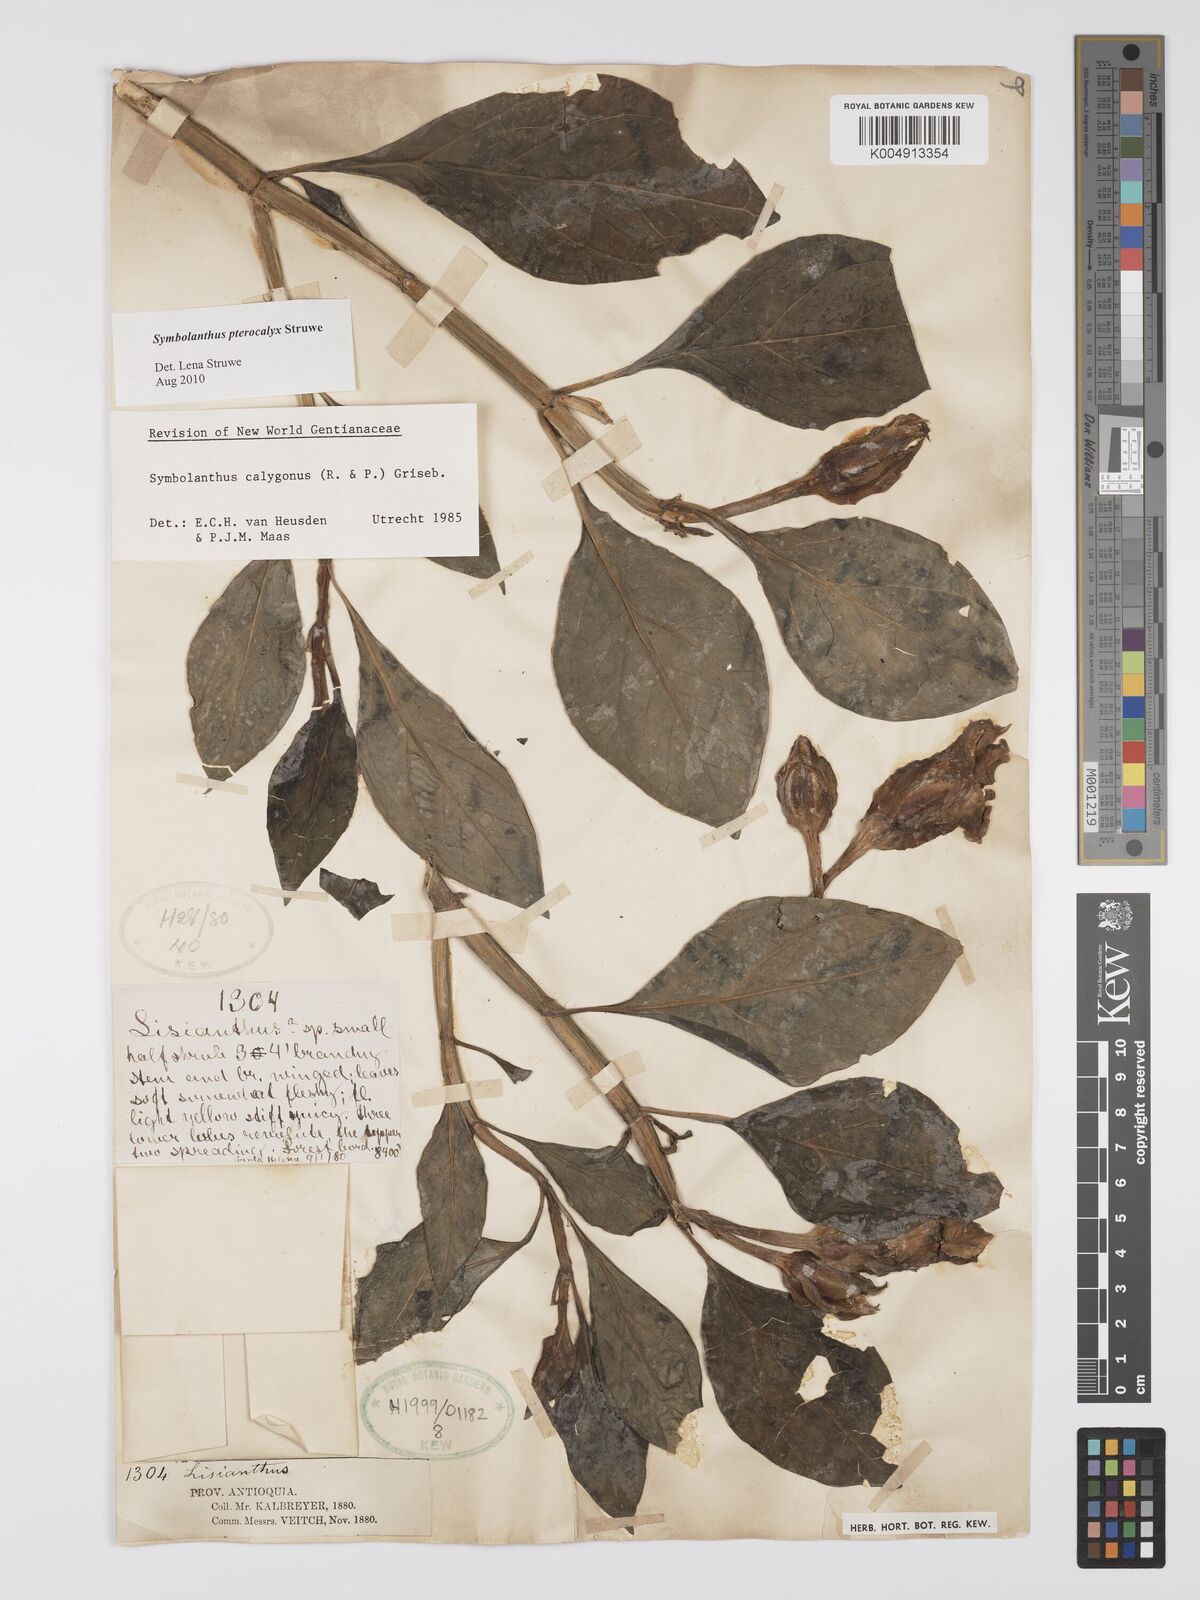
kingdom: Plantae
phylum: Tracheophyta
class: Magnoliopsida
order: Gentianales
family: Gentianaceae
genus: Symbolanthus
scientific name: Symbolanthus pterocalyx
